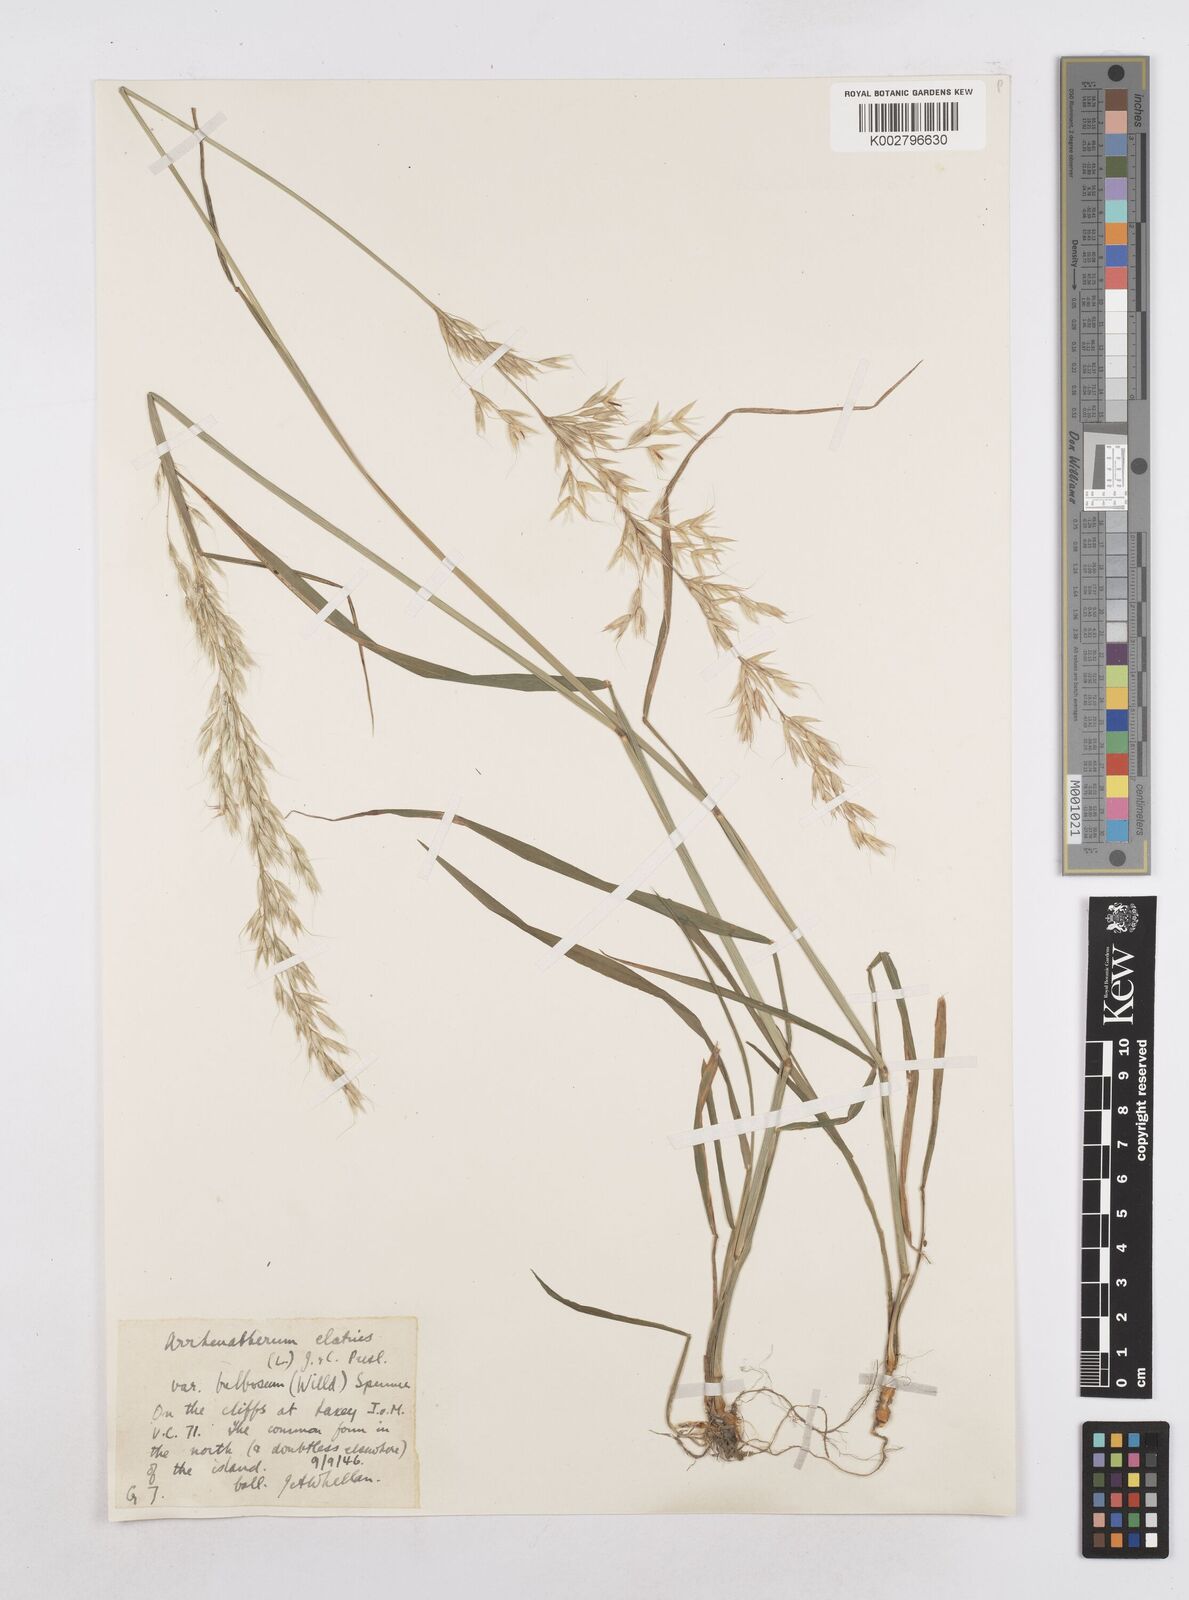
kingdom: Plantae
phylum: Tracheophyta
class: Liliopsida
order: Poales
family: Poaceae
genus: Arrhenatherum
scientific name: Arrhenatherum elatius
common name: Tall oatgrass
